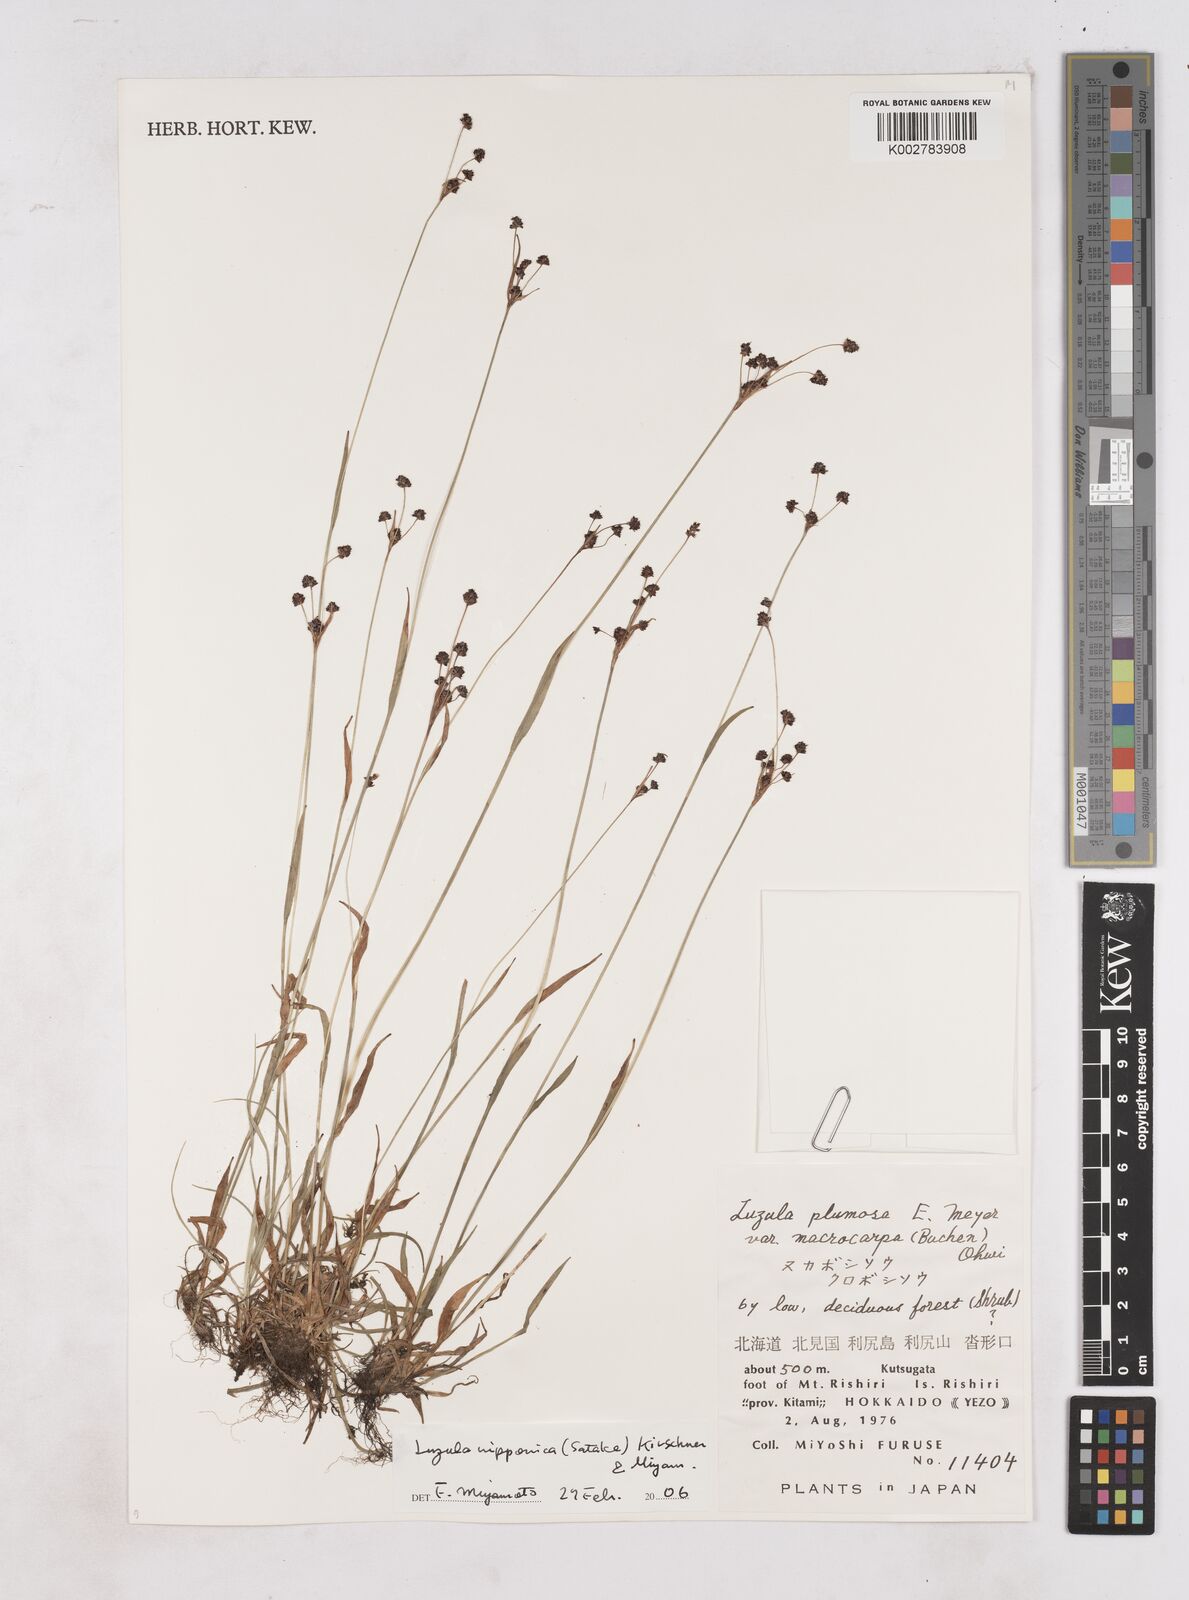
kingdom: Plantae
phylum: Tracheophyta
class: Liliopsida
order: Poales
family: Juncaceae
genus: Luzula
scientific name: Luzula plumosa
